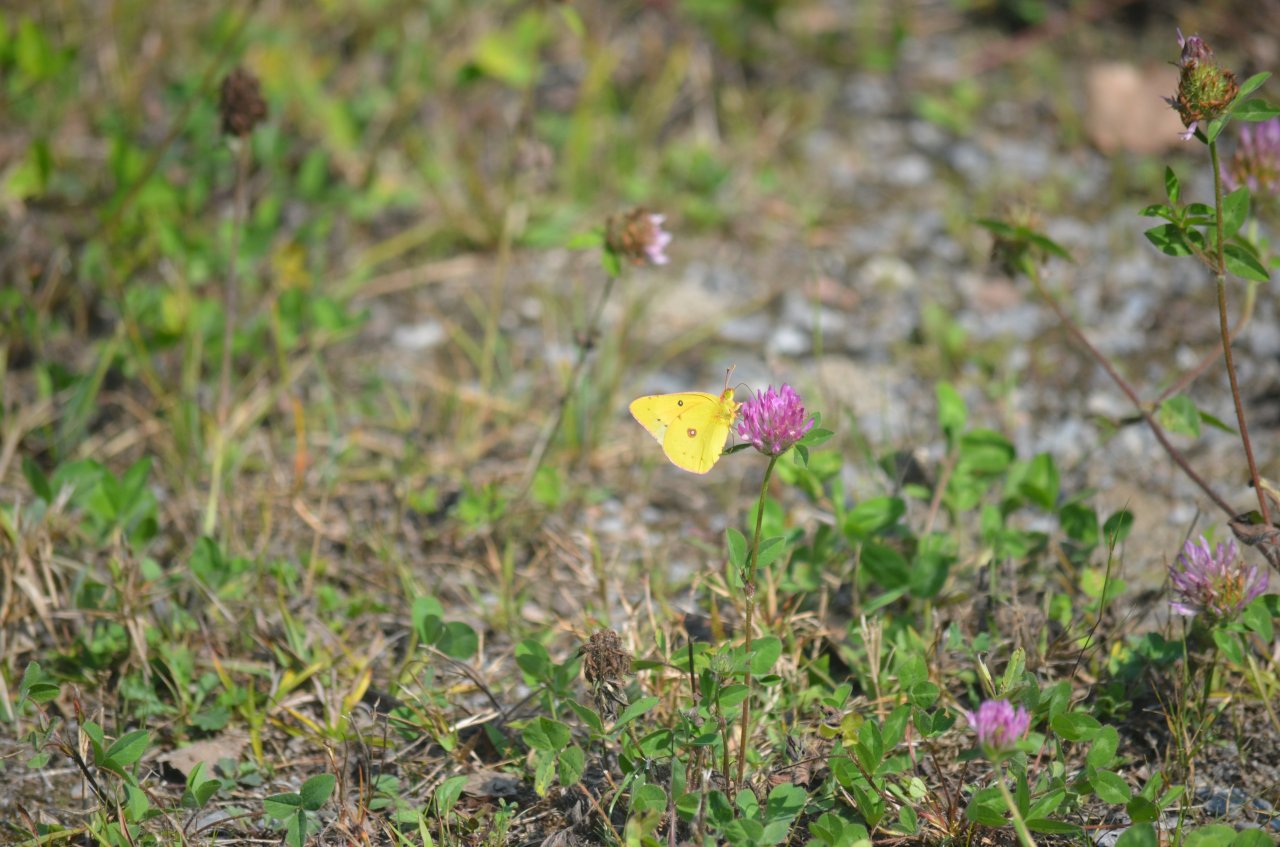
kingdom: Animalia
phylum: Arthropoda
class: Insecta
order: Lepidoptera
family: Pieridae
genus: Colias
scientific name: Colias eurytheme
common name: Orange Sulphur
